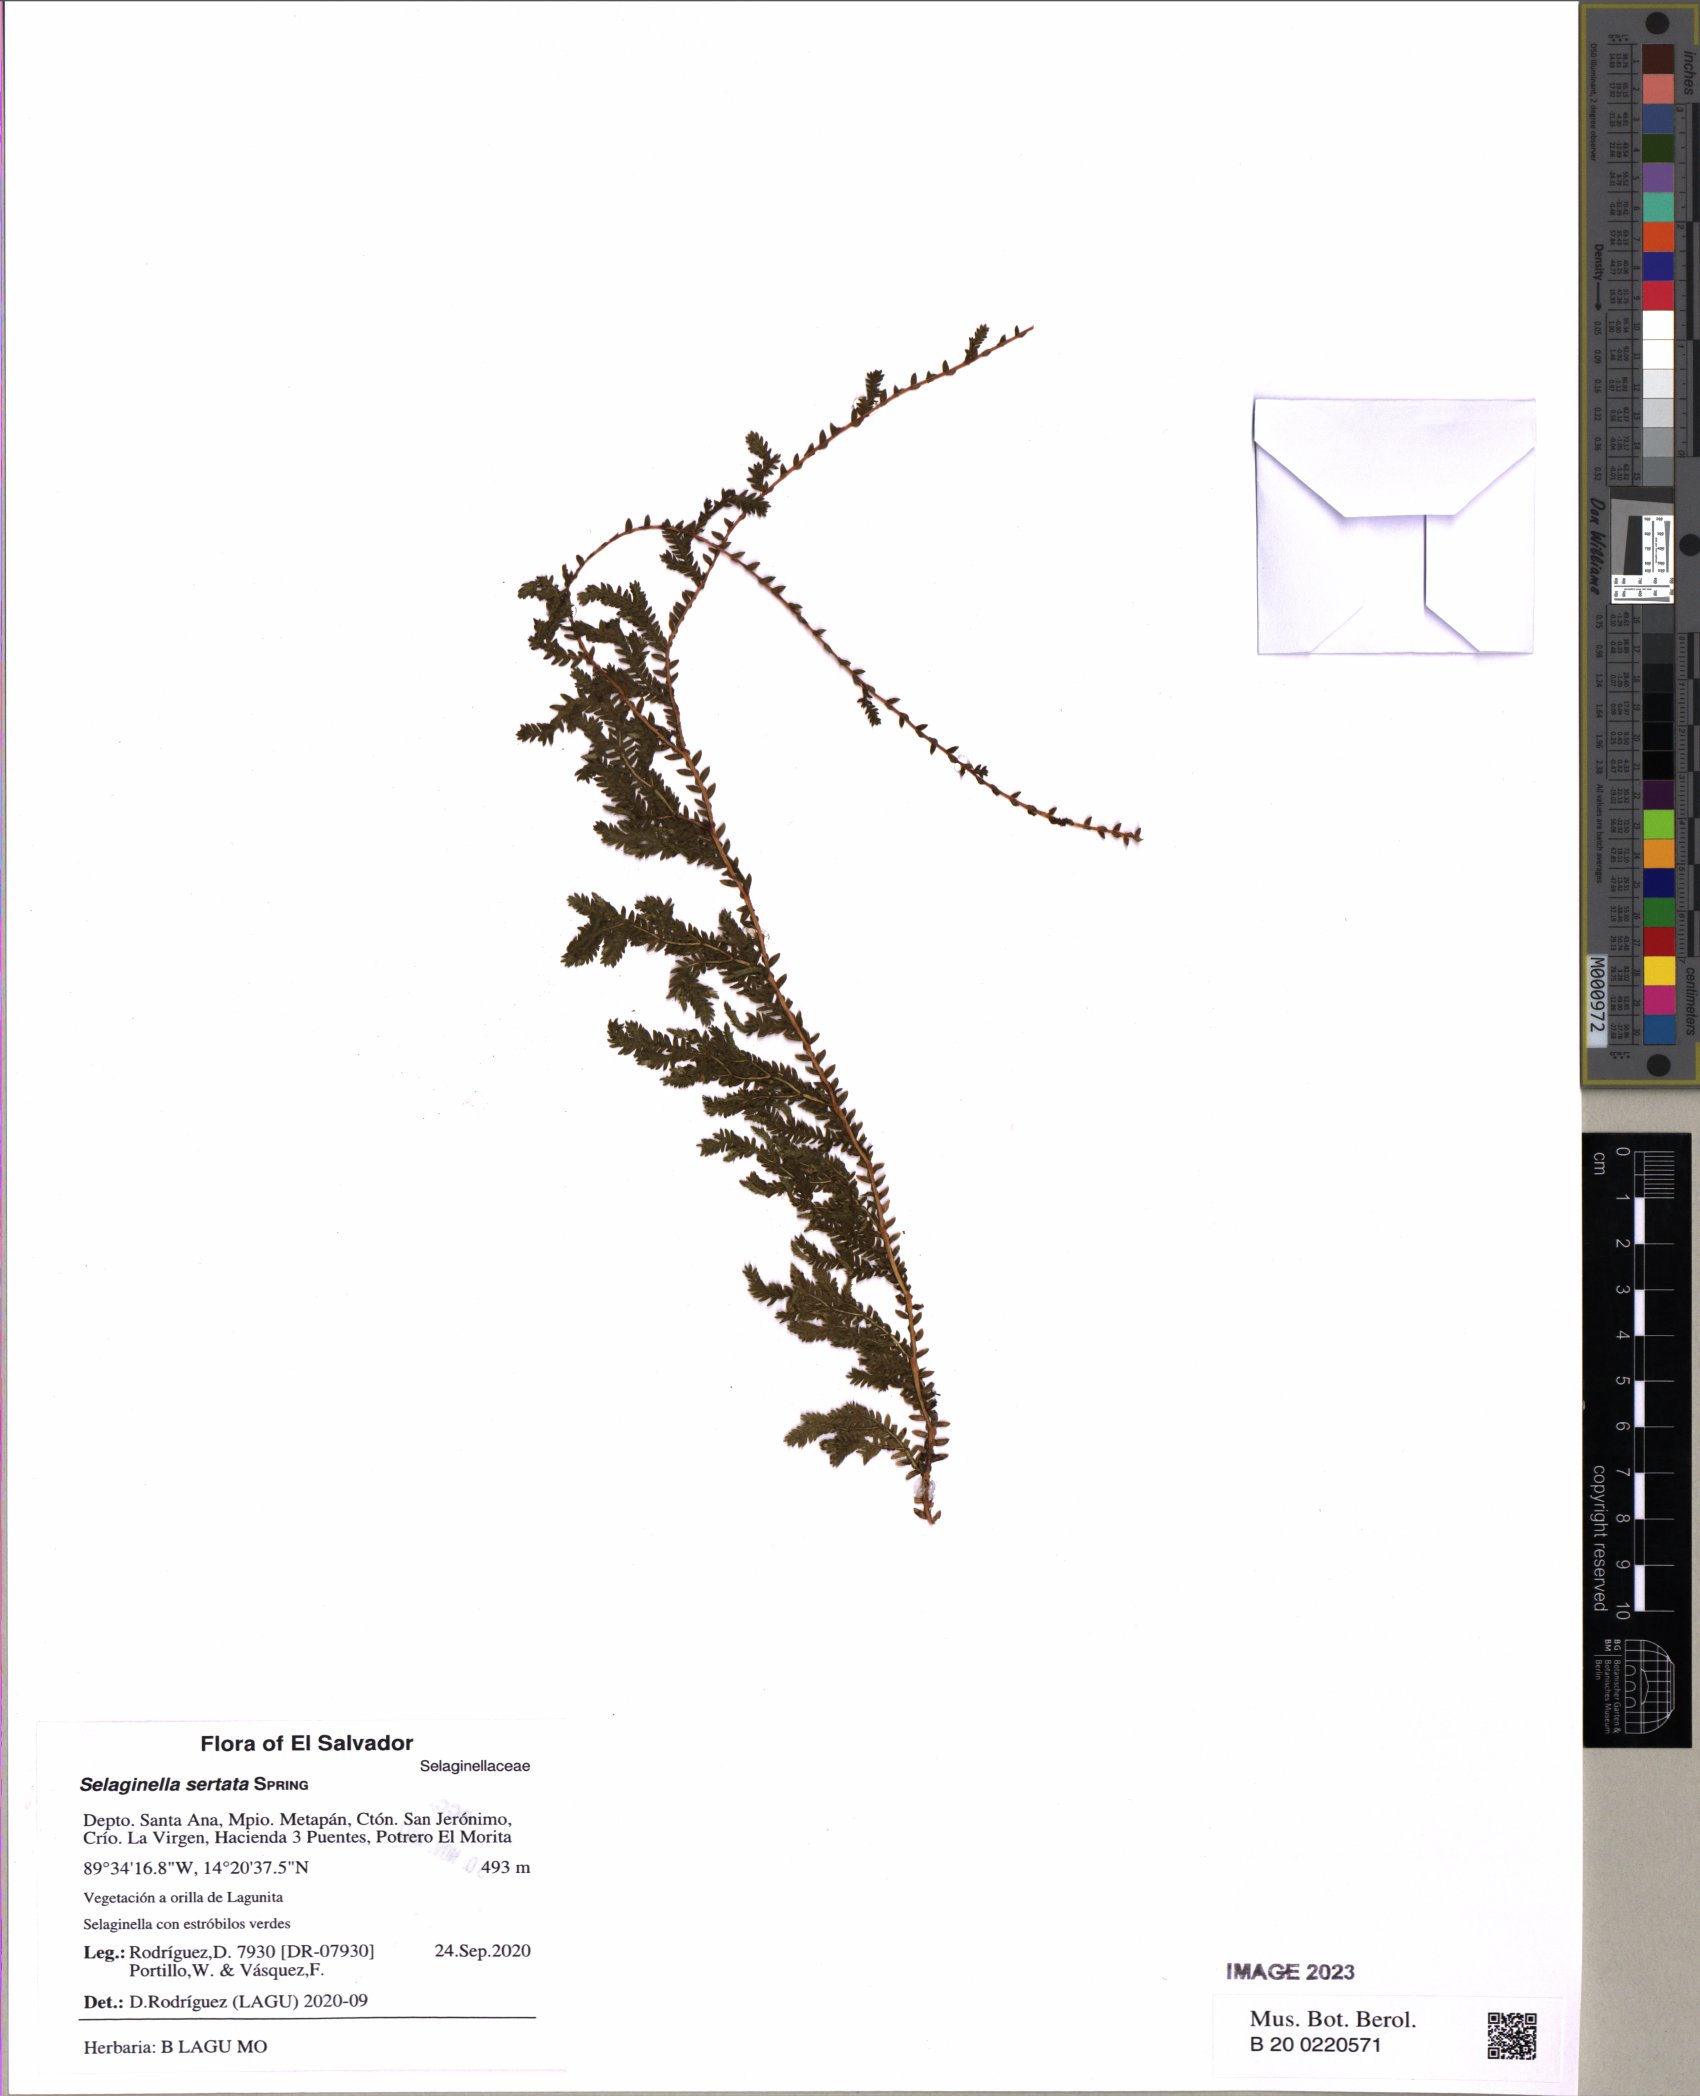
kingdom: Plantae
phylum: Tracheophyta
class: Lycopodiopsida
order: Selaginellales
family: Selaginellaceae
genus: Selaginella
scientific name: Selaginella sertata
